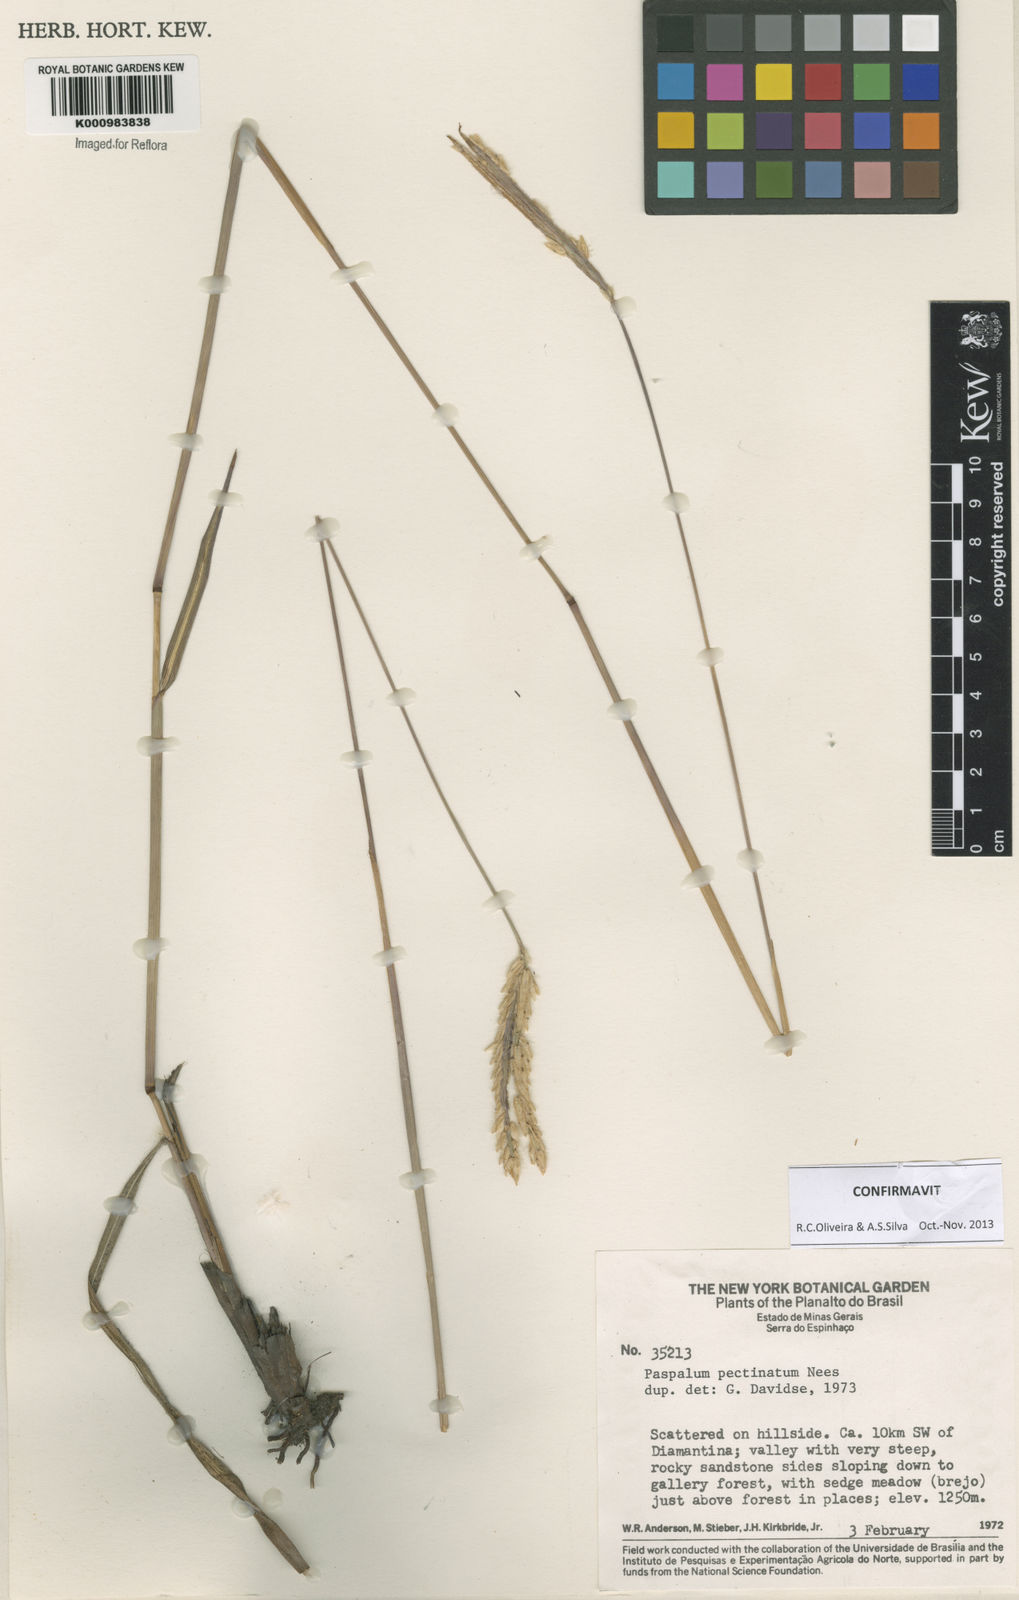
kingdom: Plantae
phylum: Tracheophyta
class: Liliopsida
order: Poales
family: Poaceae
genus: Paspalum
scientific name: Paspalum
